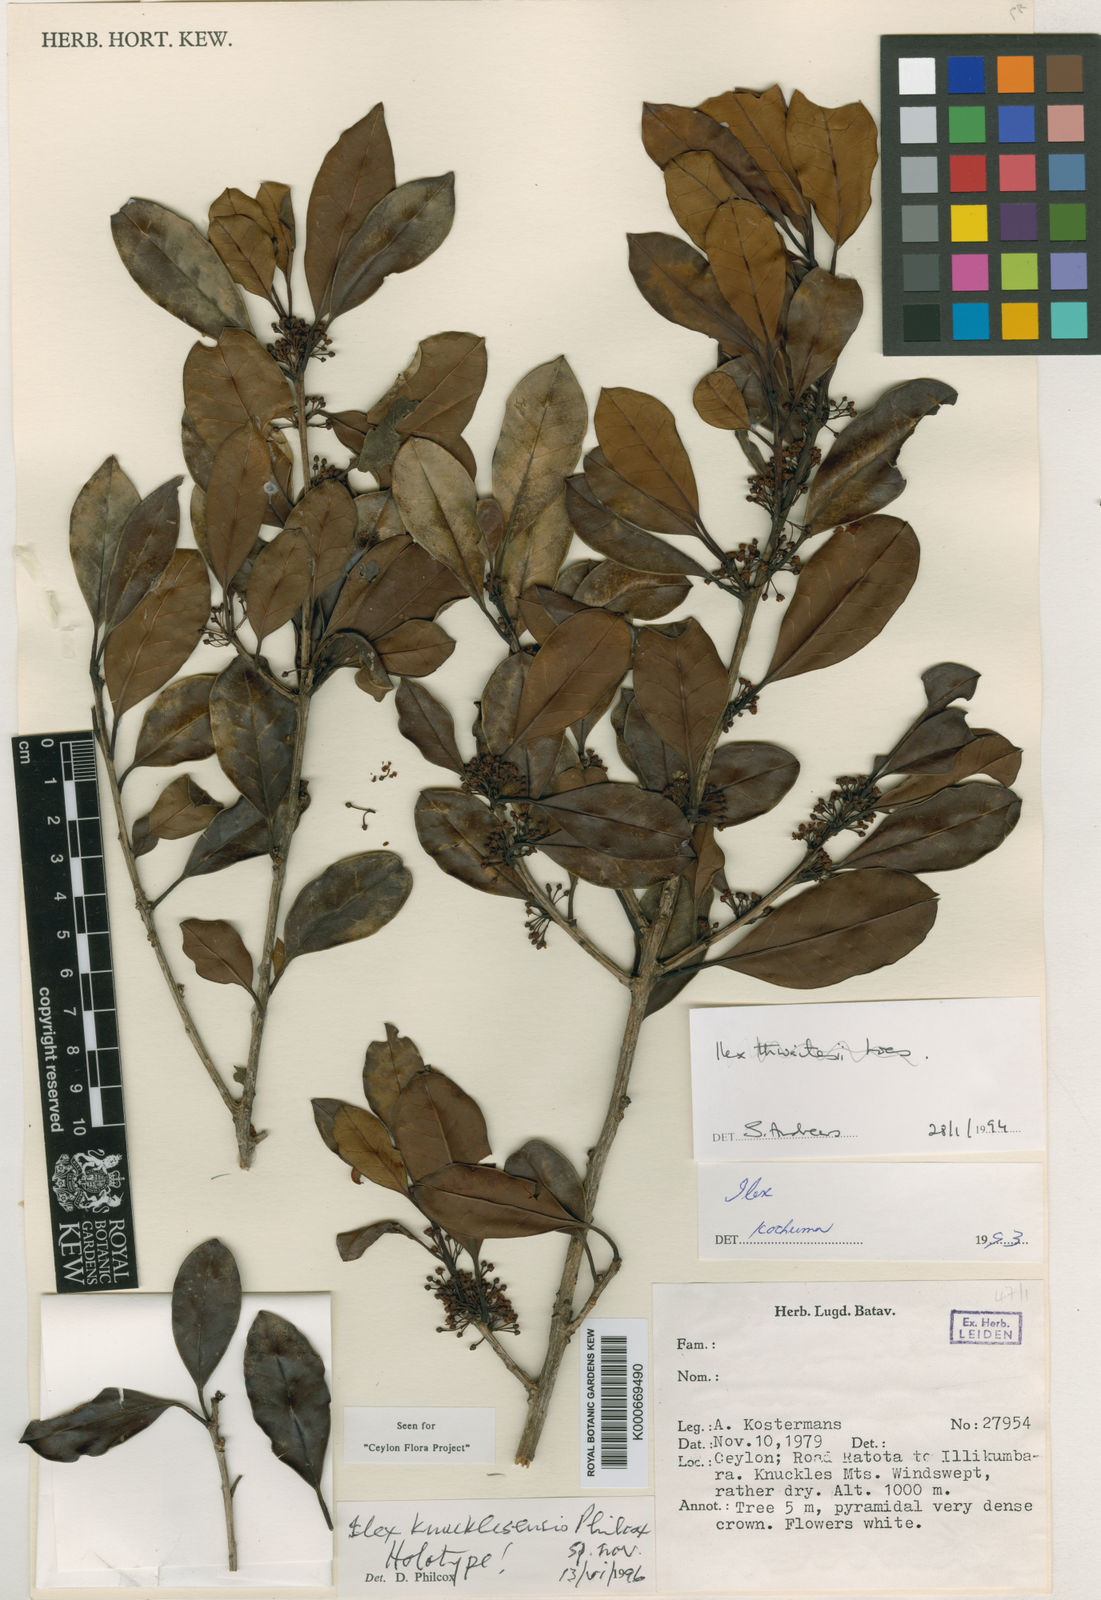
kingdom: Plantae
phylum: Tracheophyta
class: Magnoliopsida
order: Aquifoliales
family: Aquifoliaceae
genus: Ilex
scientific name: Ilex knucklesensis
